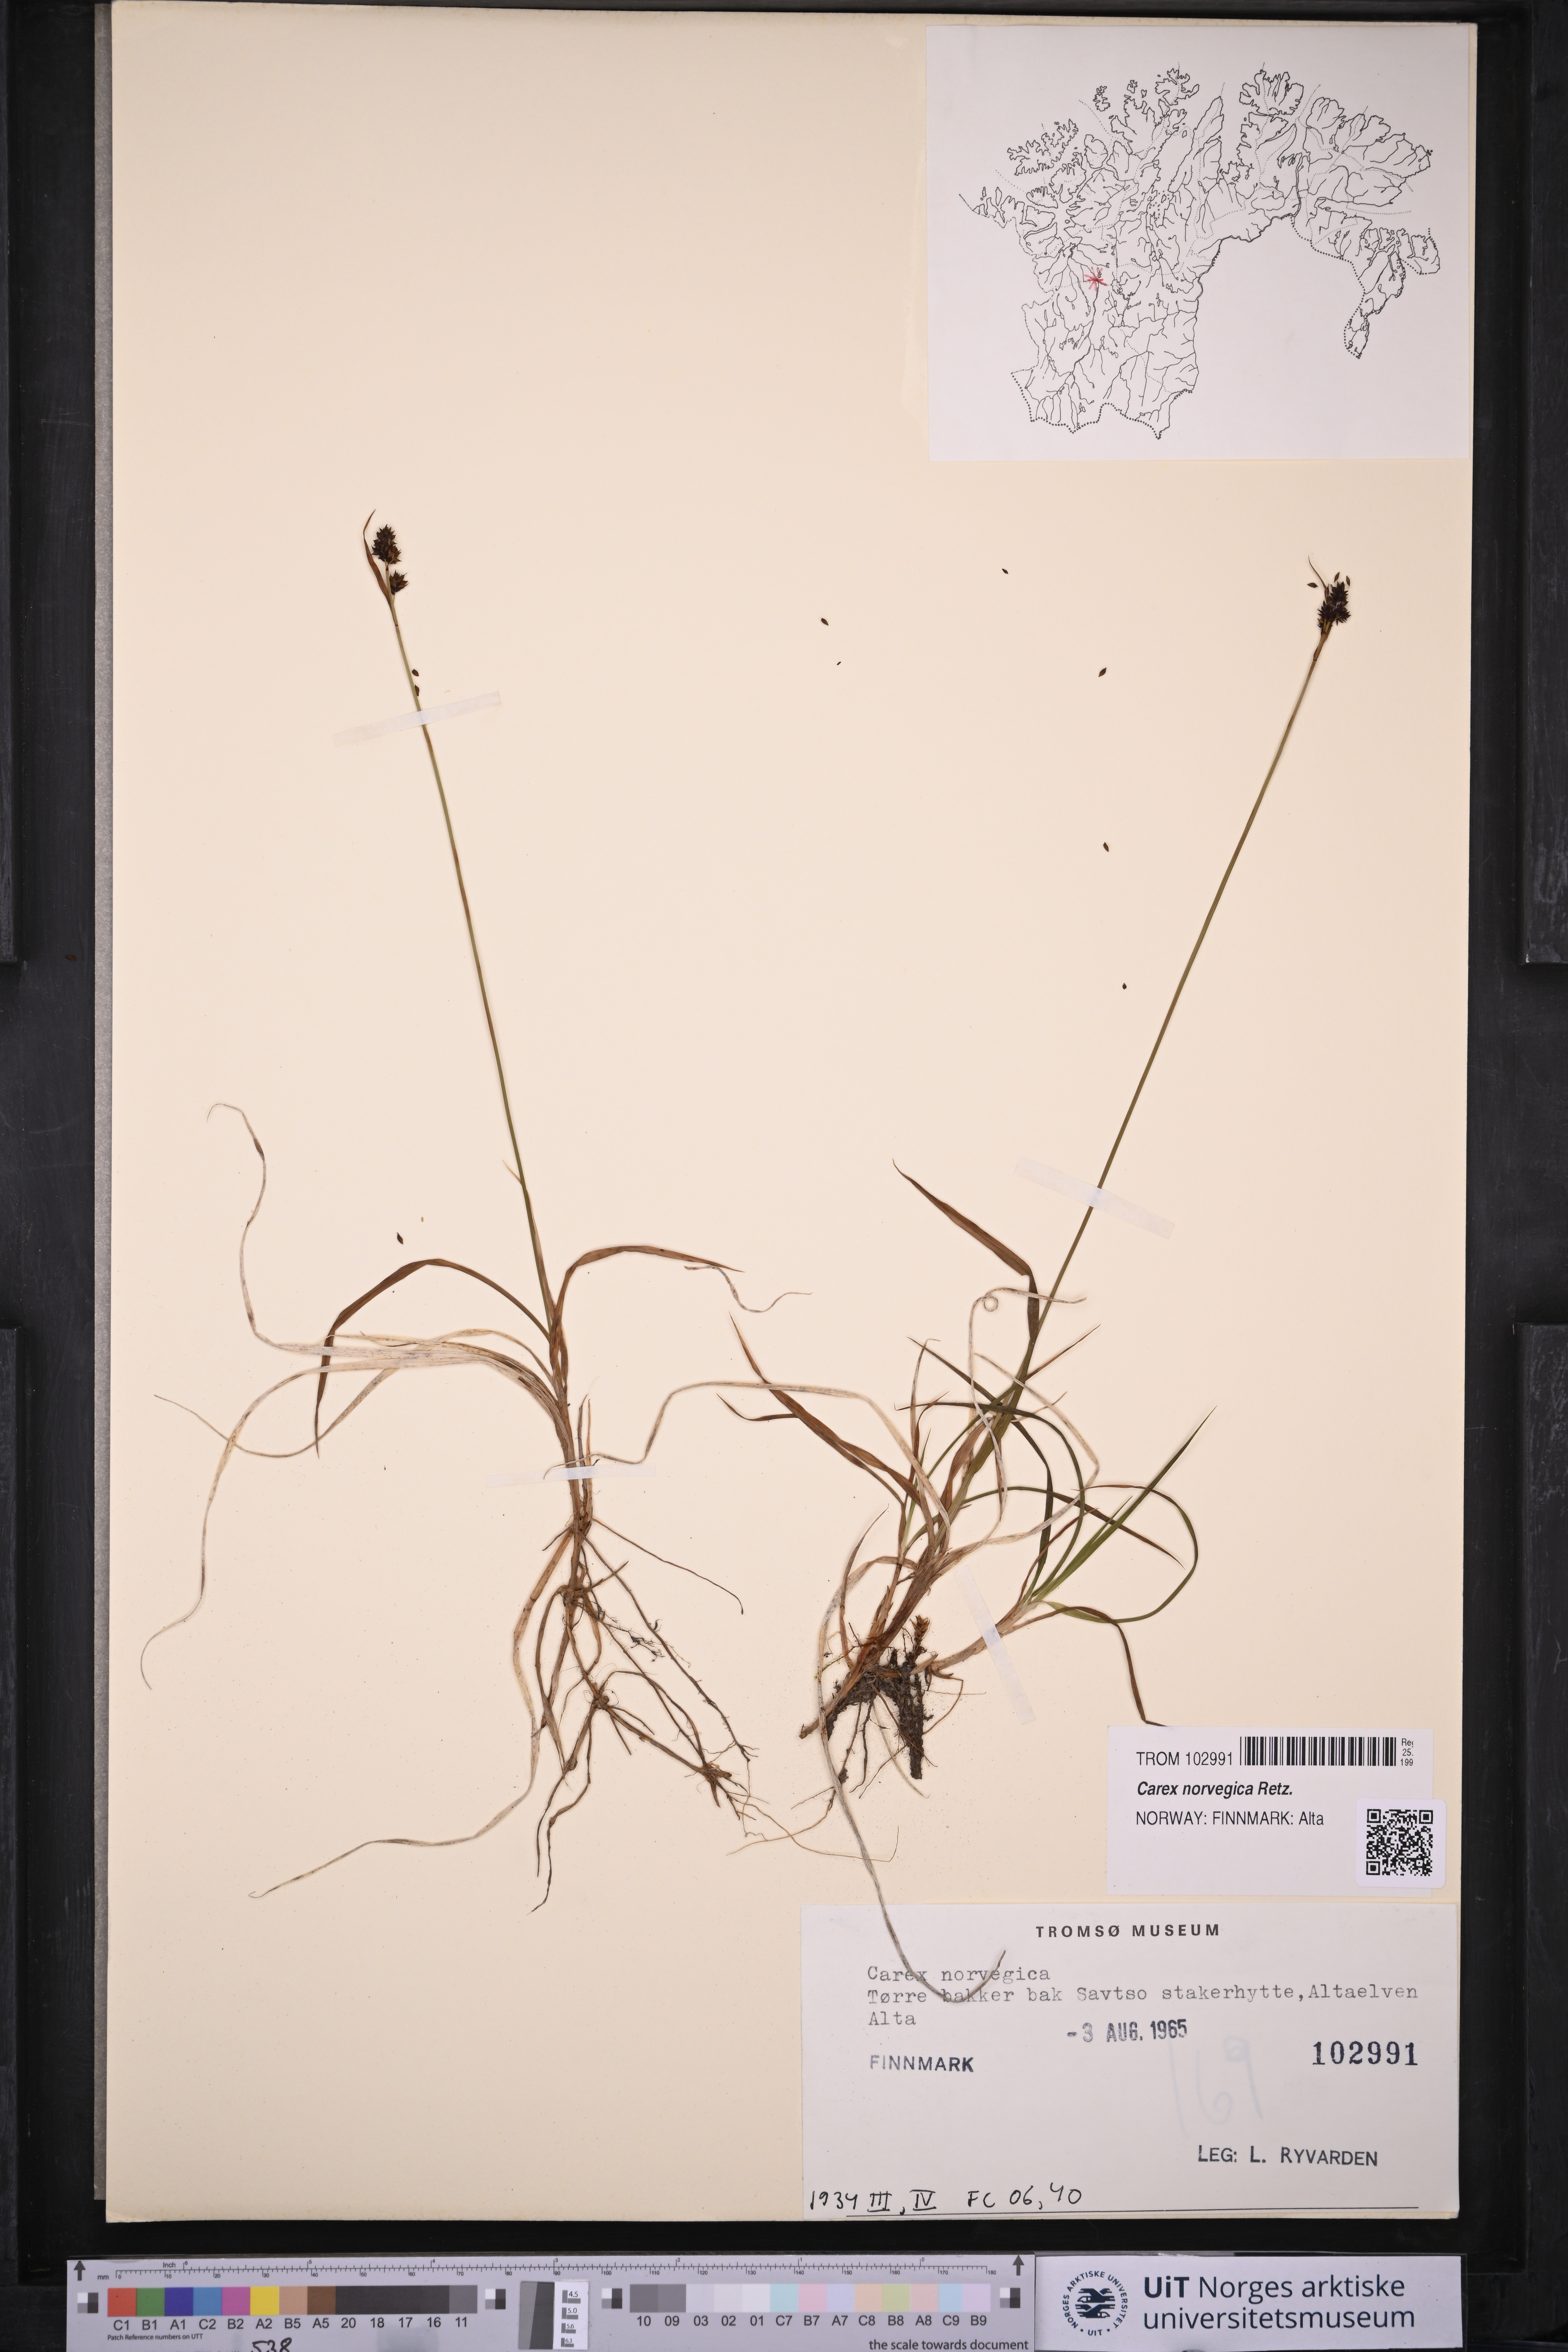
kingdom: Plantae
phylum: Tracheophyta
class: Liliopsida
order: Poales
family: Cyperaceae
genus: Carex
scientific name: Carex norvegica
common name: Close-headed alpine-sedge
